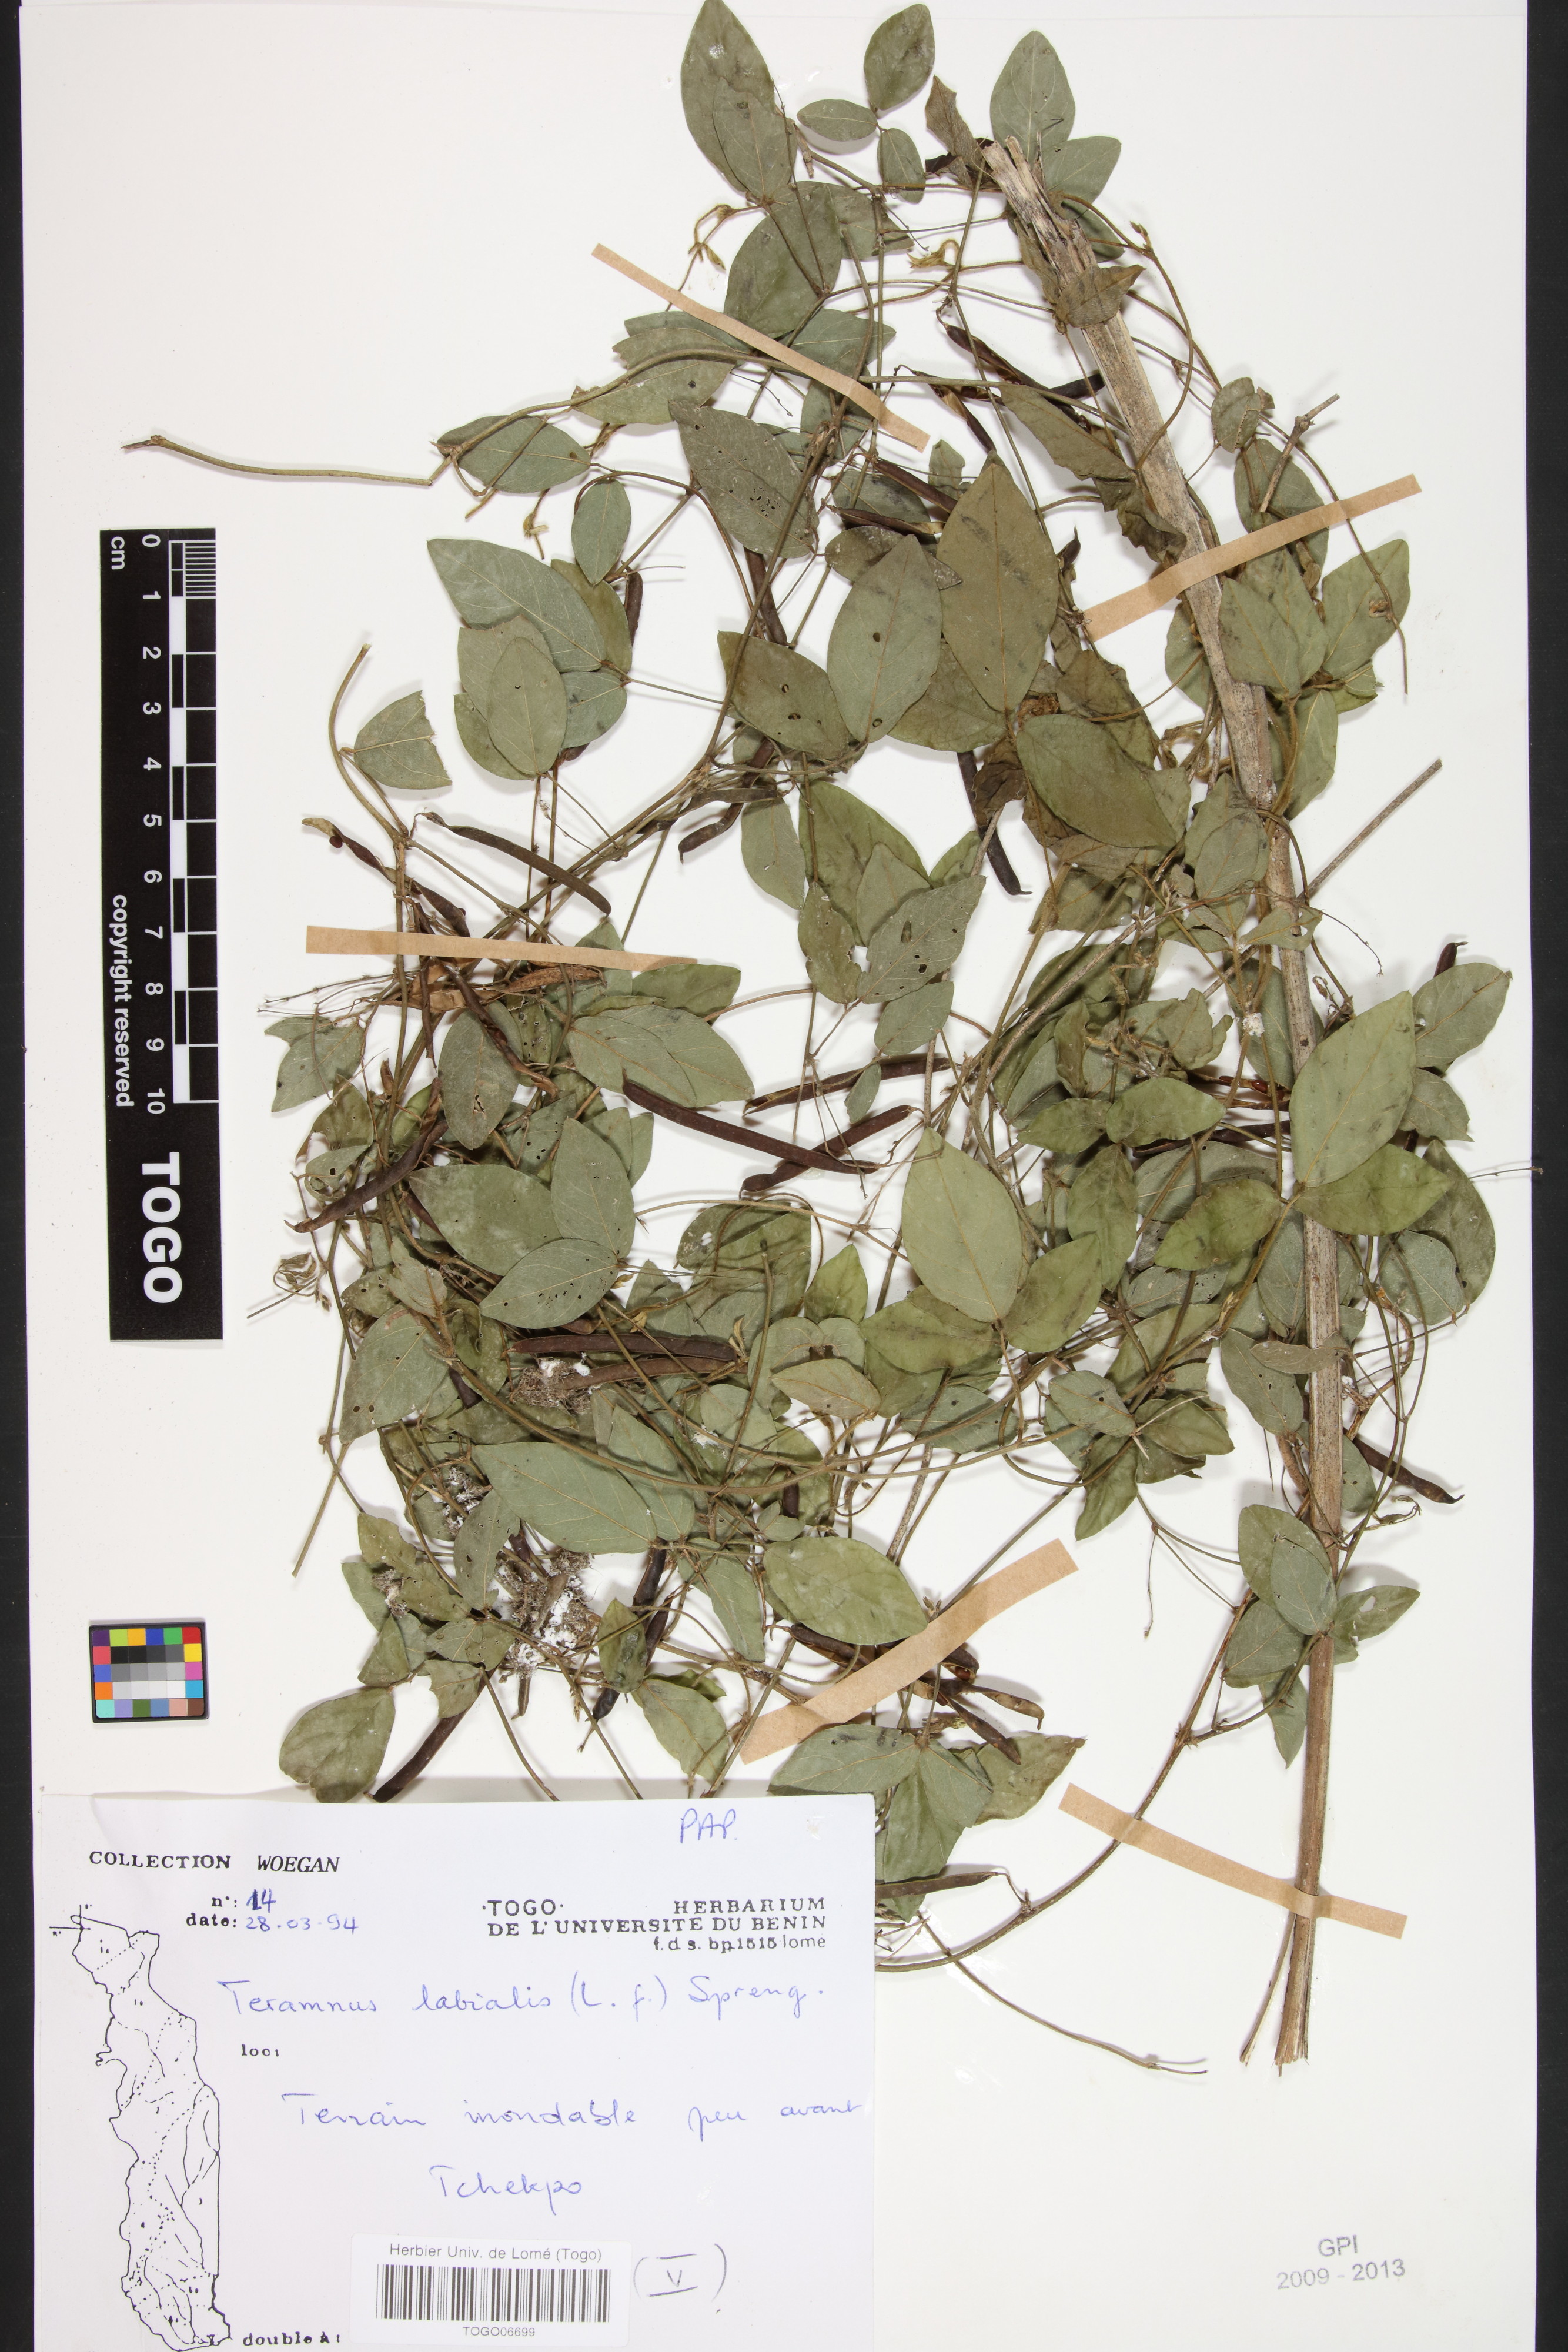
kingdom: Plantae
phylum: Tracheophyta
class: Magnoliopsida
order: Fabales
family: Fabaceae
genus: Teramnus
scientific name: Teramnus labialis
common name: Blue wiss
